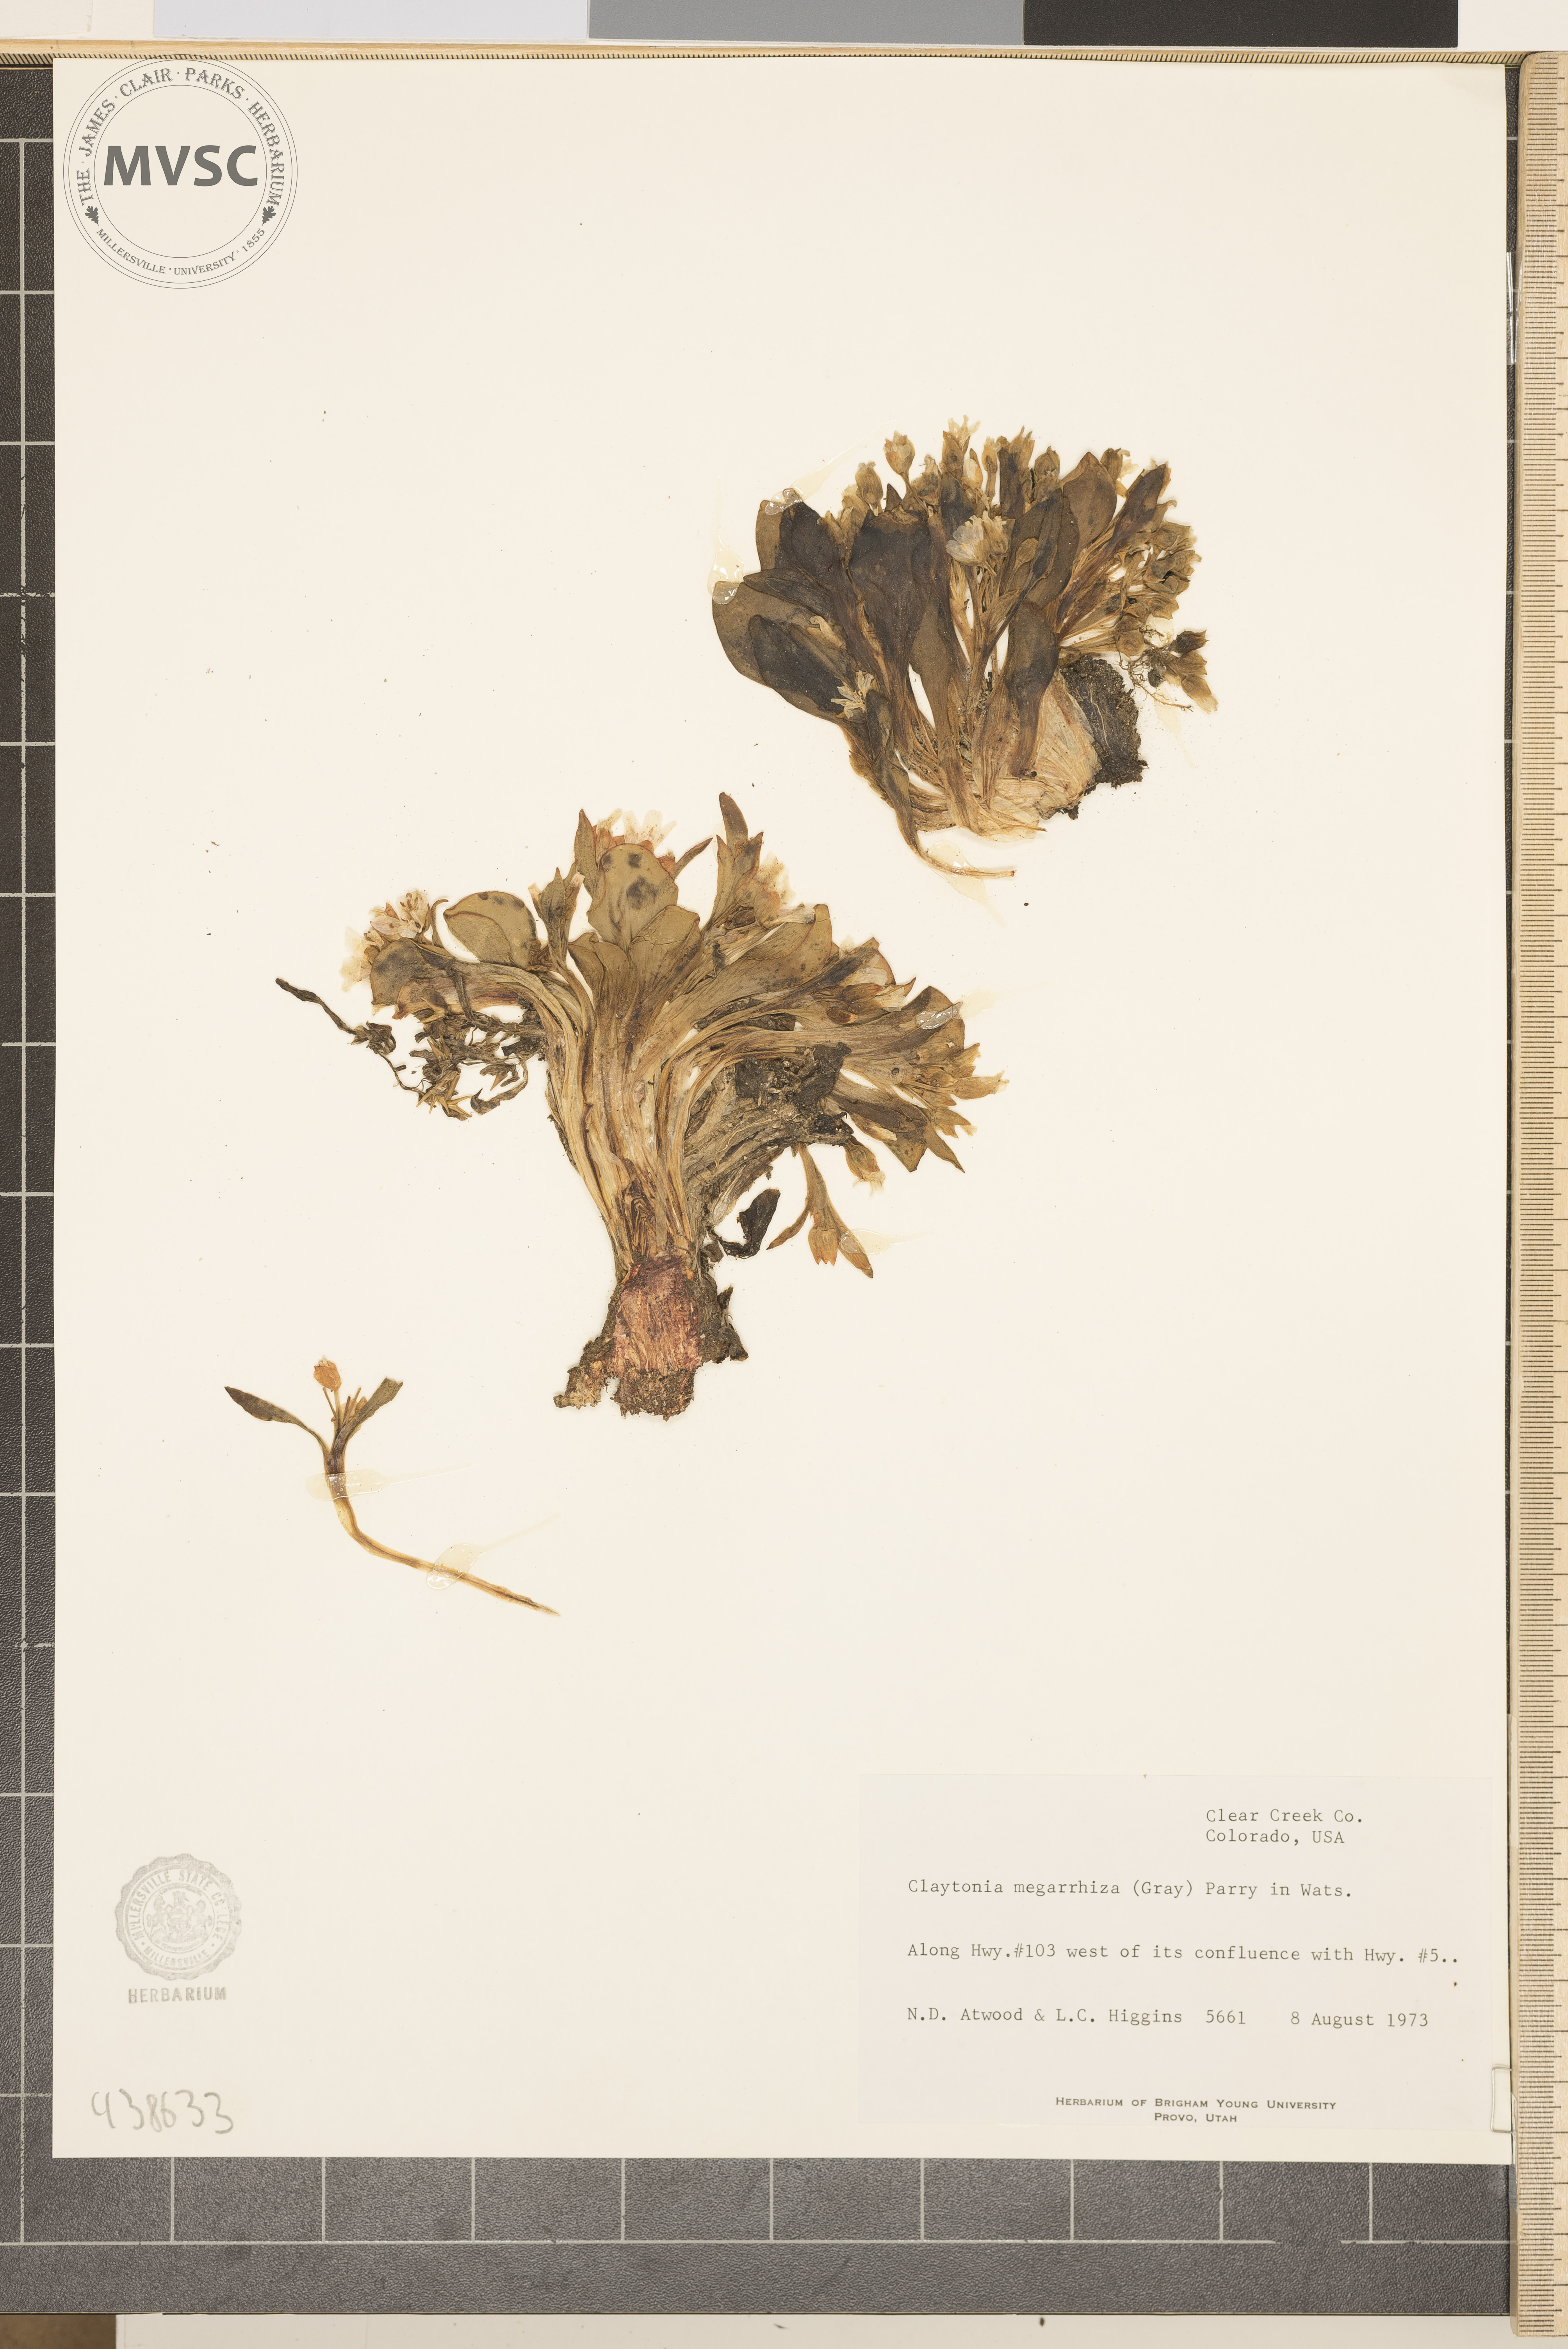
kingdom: Plantae
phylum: Tracheophyta
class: Magnoliopsida
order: Caryophyllales
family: Montiaceae
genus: Claytonia
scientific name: Claytonia megarhiza
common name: Alpine spring beauty
